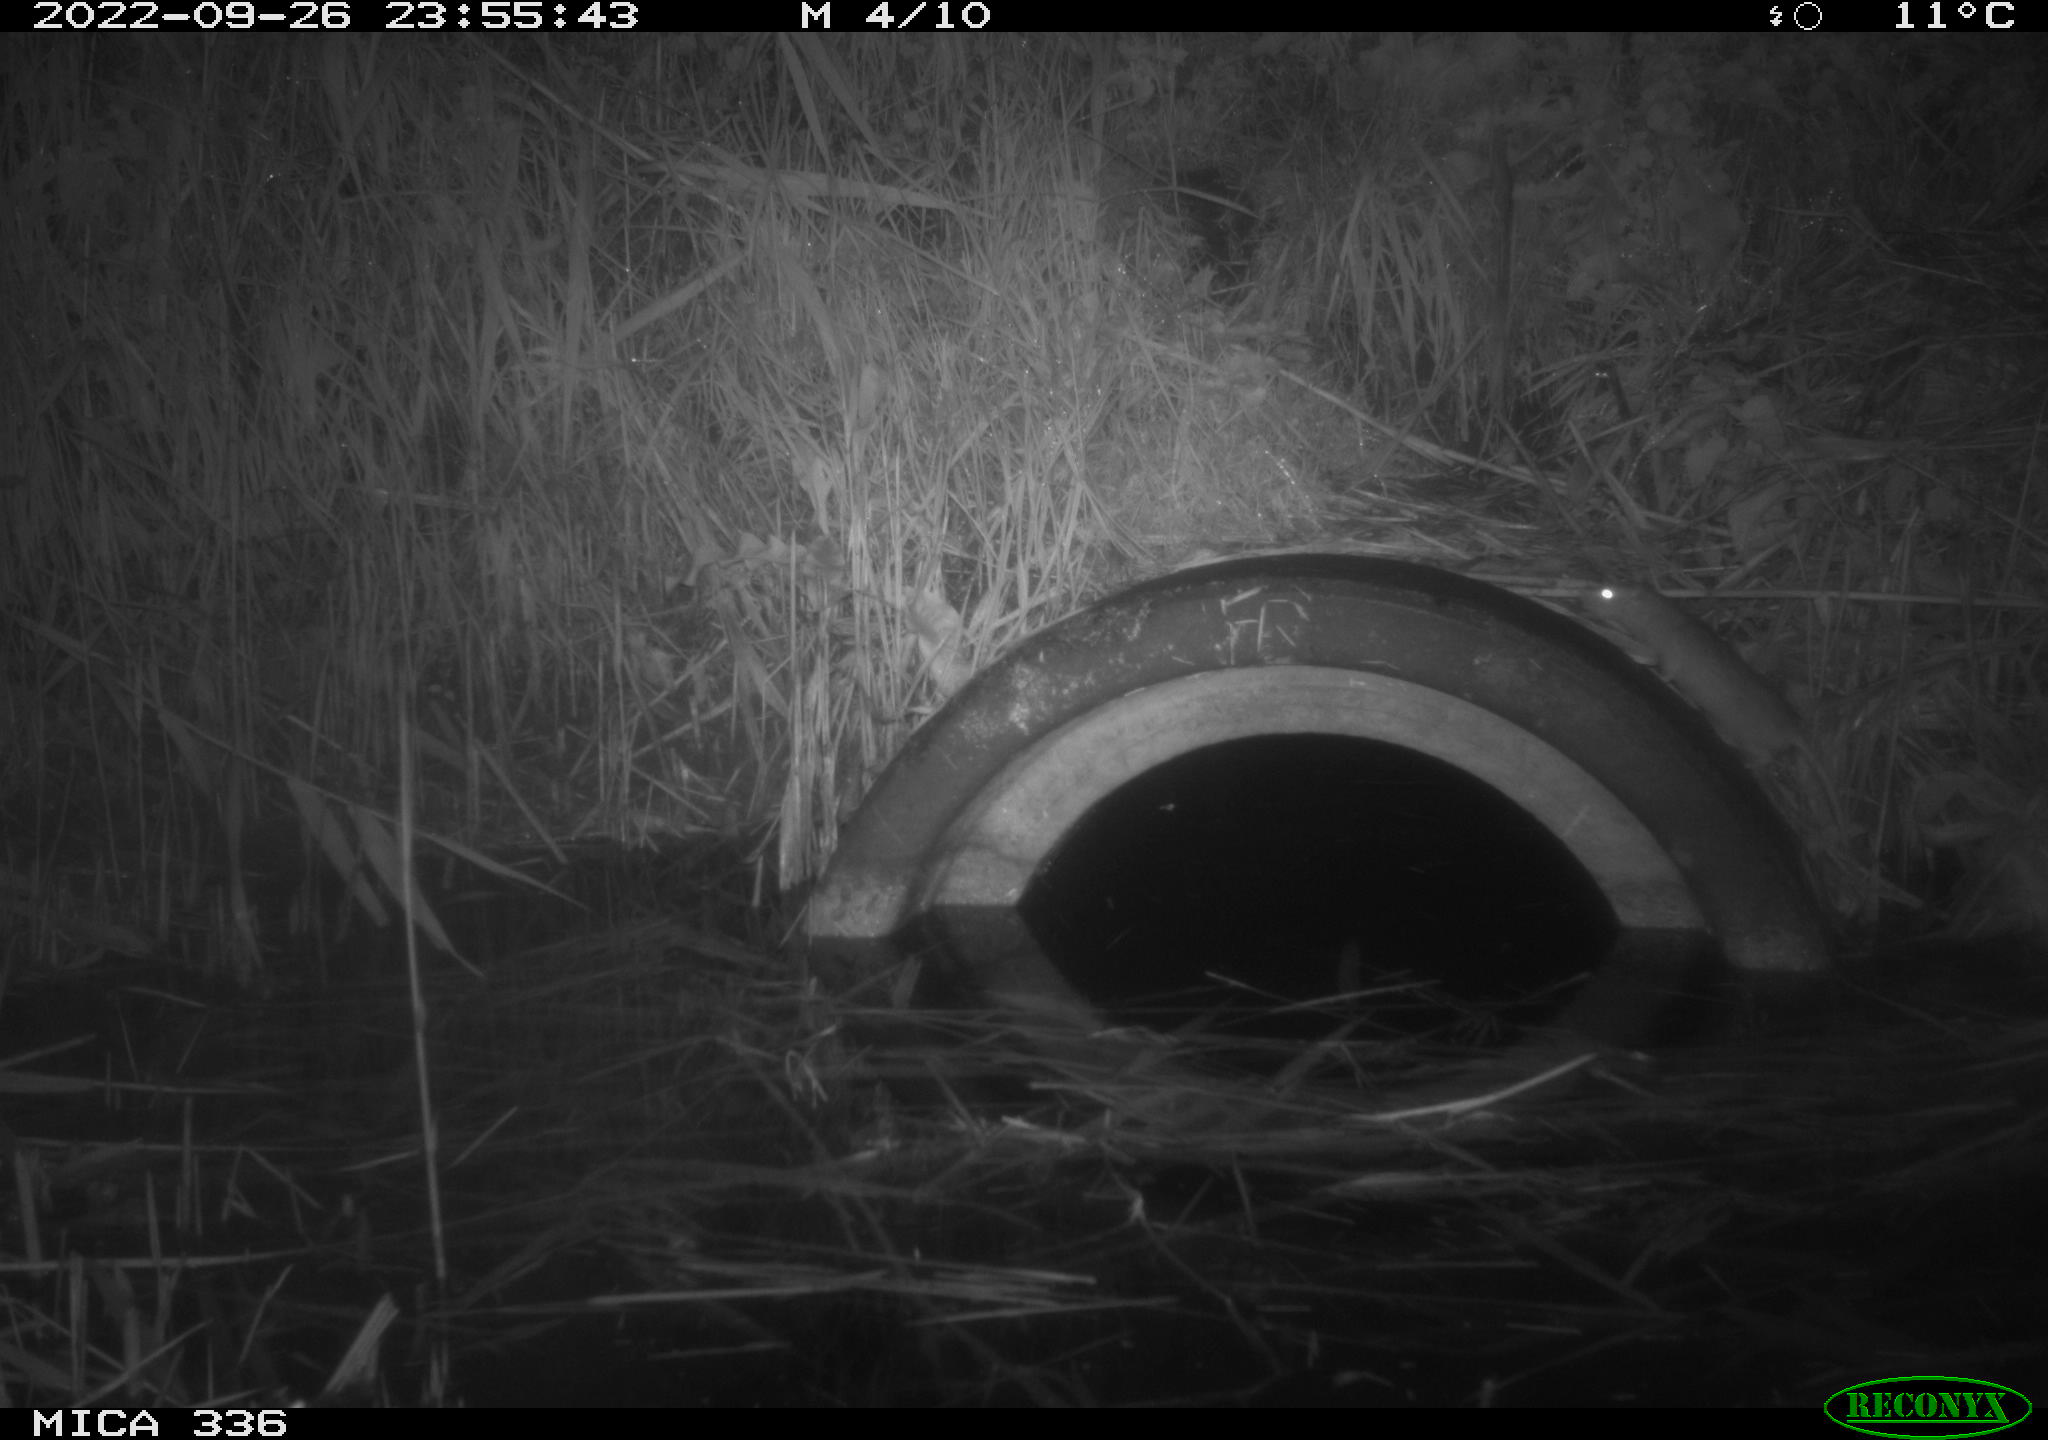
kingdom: Animalia
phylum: Chordata
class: Mammalia
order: Rodentia
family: Muridae
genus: Rattus
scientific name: Rattus norvegicus
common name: Brown rat
